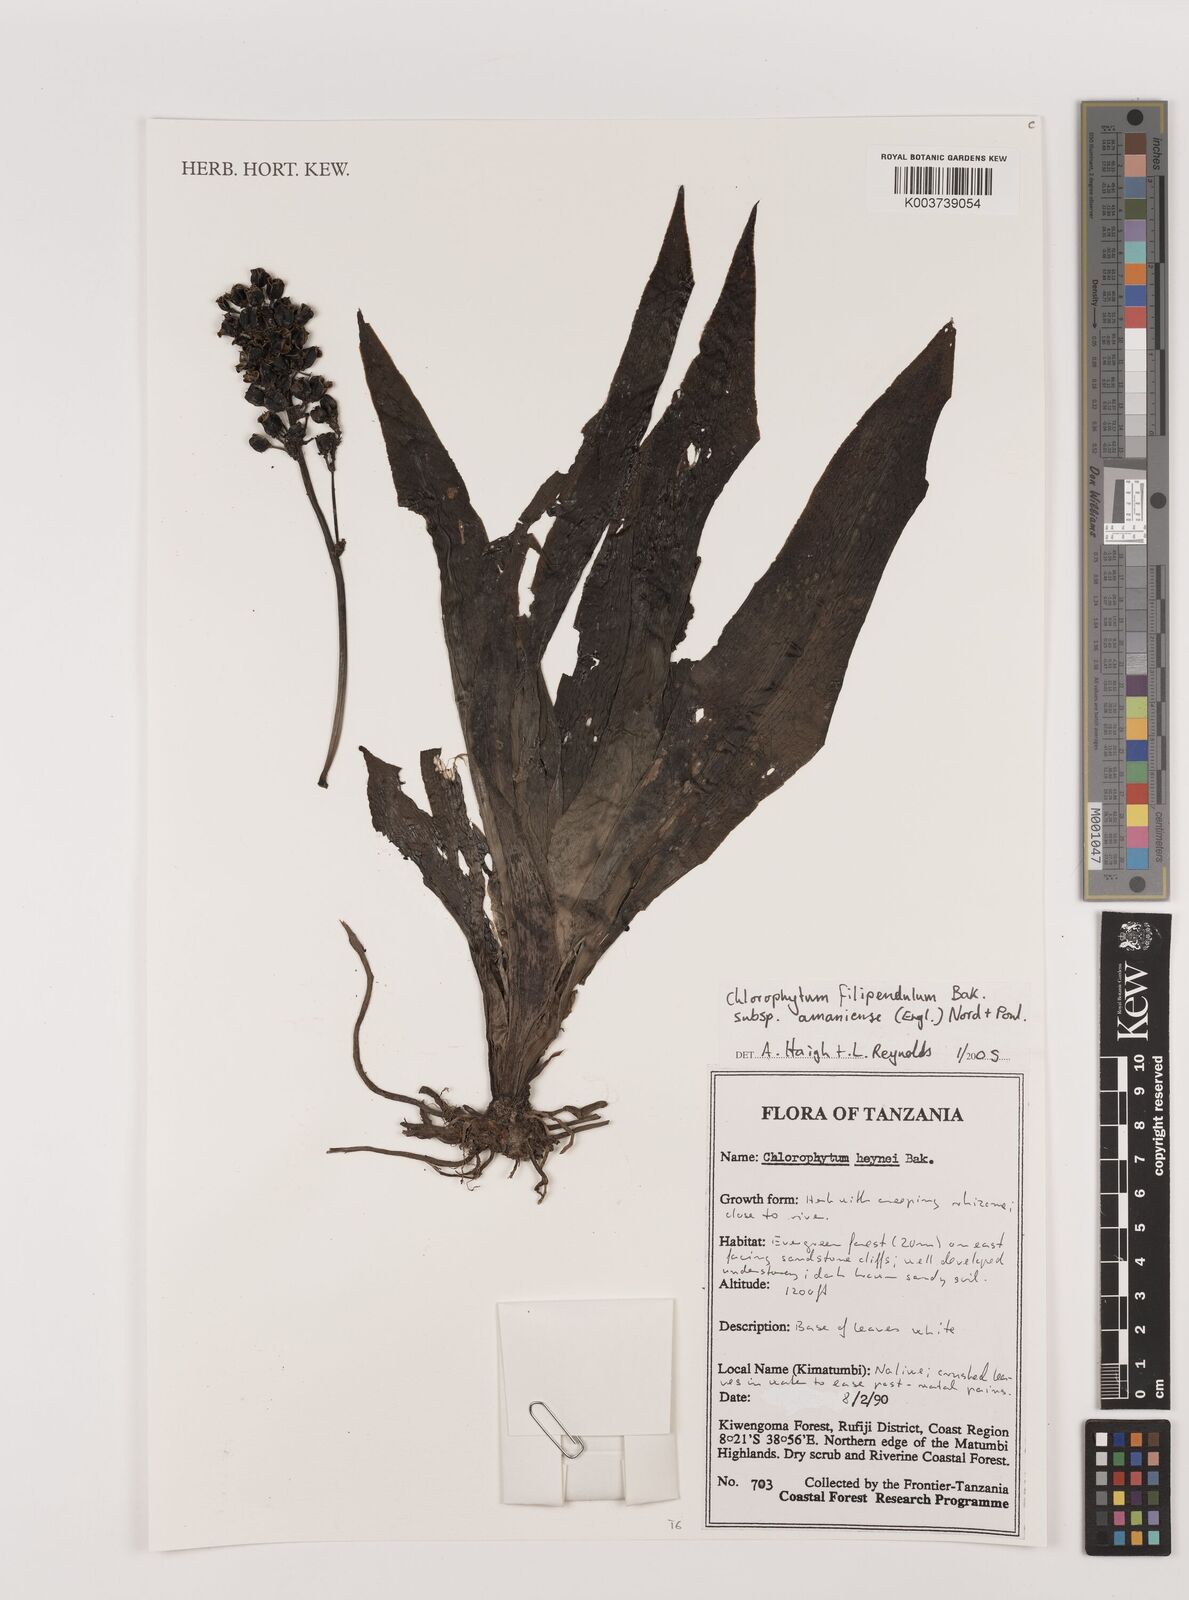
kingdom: Plantae
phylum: Tracheophyta
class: Liliopsida
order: Asparagales
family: Asparagaceae
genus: Chlorophytum
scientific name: Chlorophytum filipendulum
